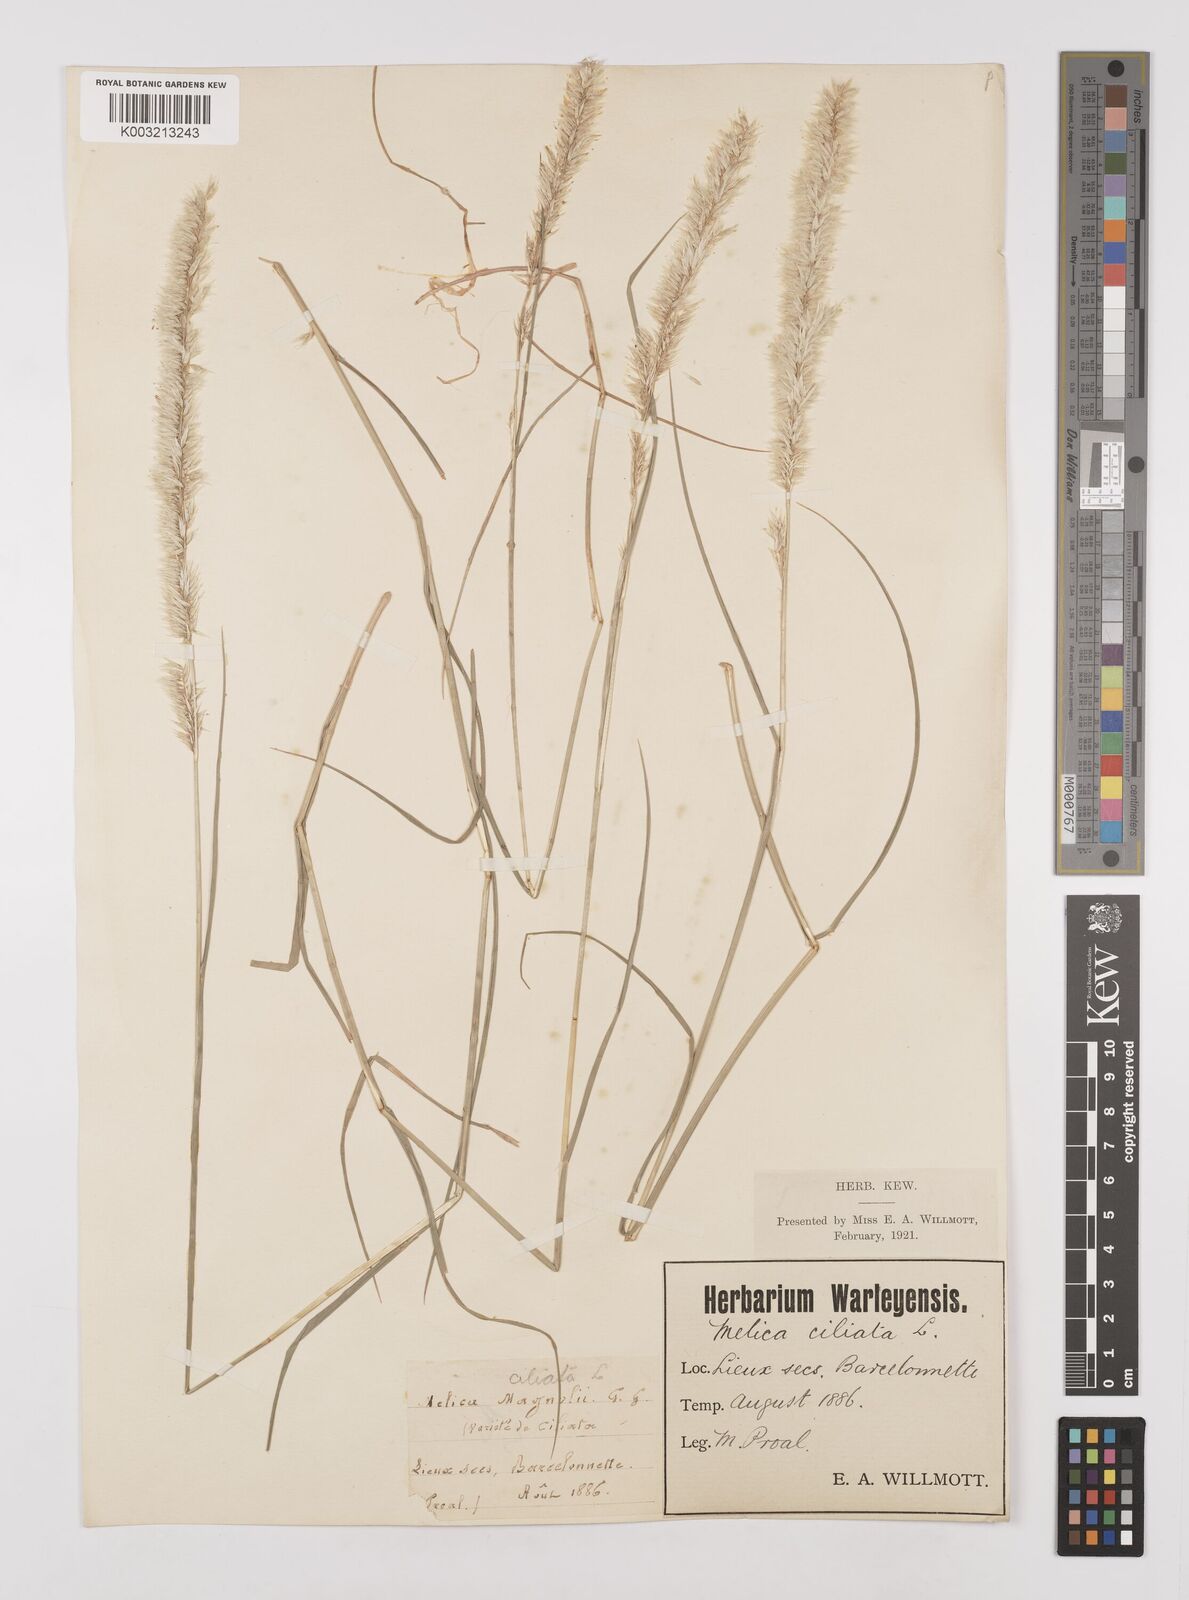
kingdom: Plantae
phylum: Tracheophyta
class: Liliopsida
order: Poales
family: Poaceae
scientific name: Poaceae
